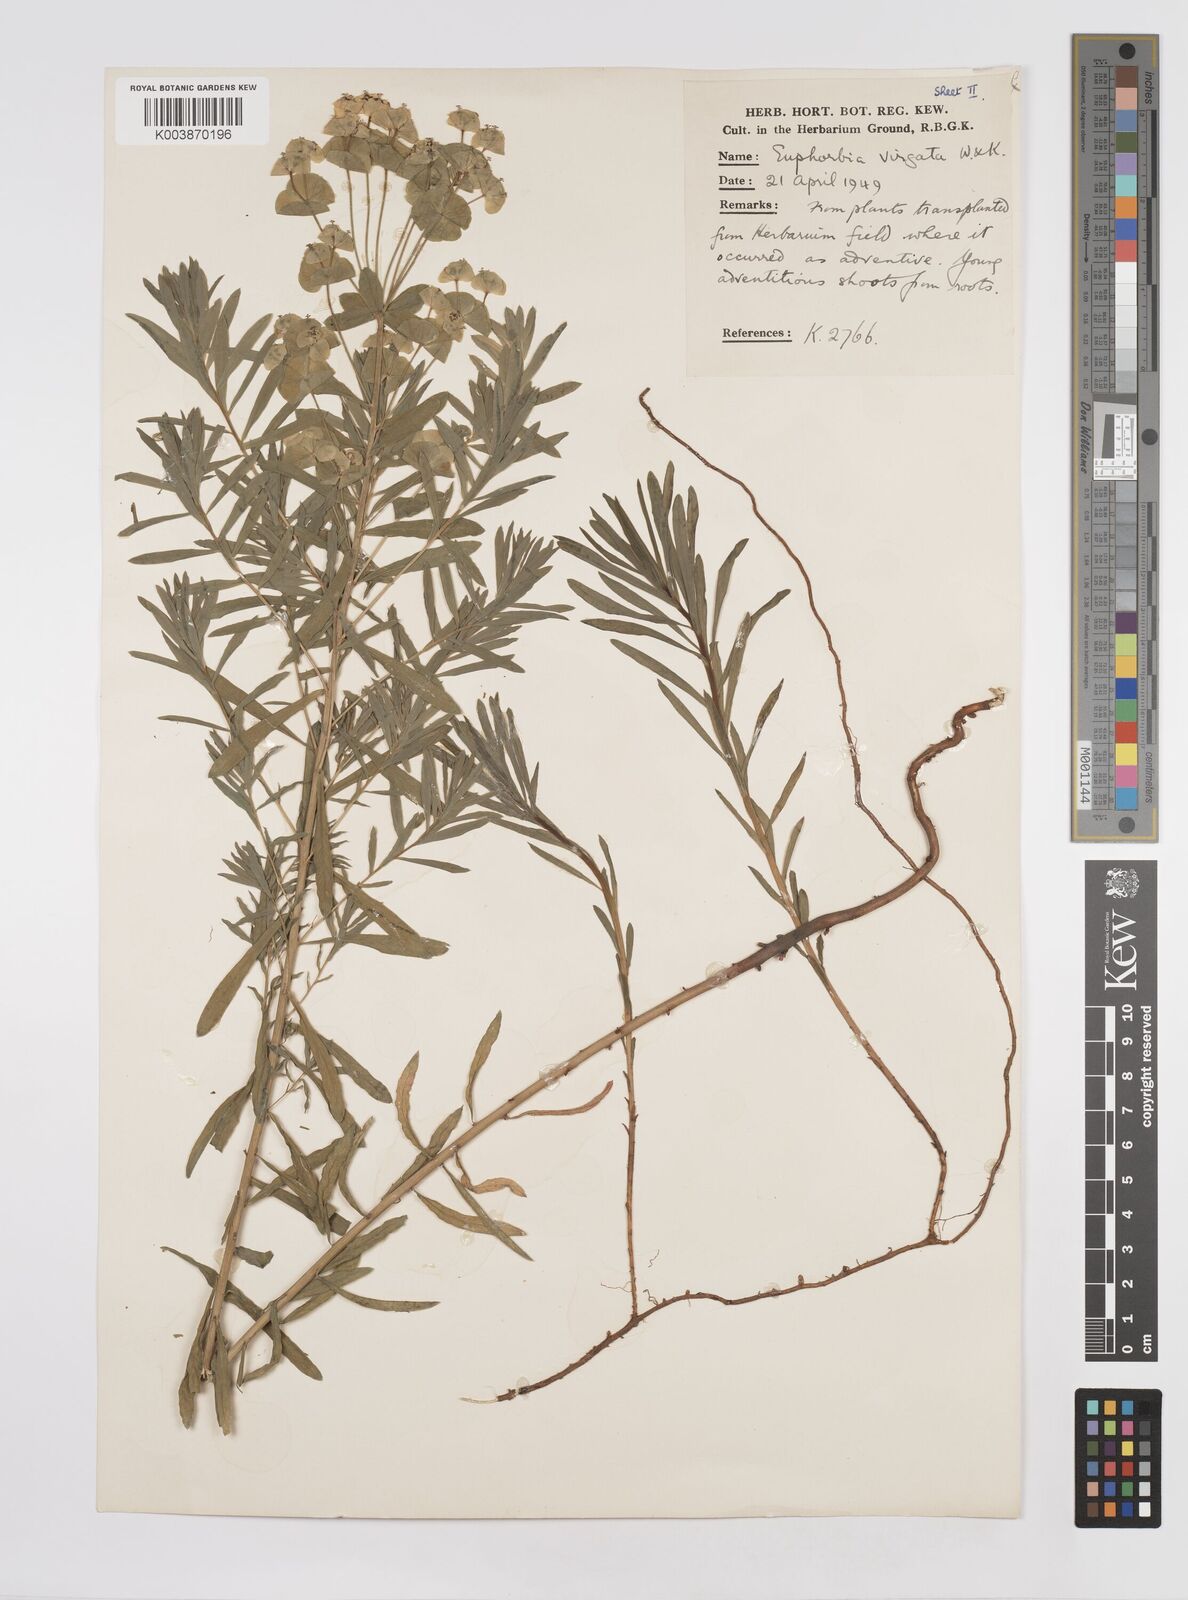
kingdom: Plantae
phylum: Tracheophyta
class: Magnoliopsida
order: Malpighiales
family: Euphorbiaceae
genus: Euphorbia
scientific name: Euphorbia virgata
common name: Leafy spurge
